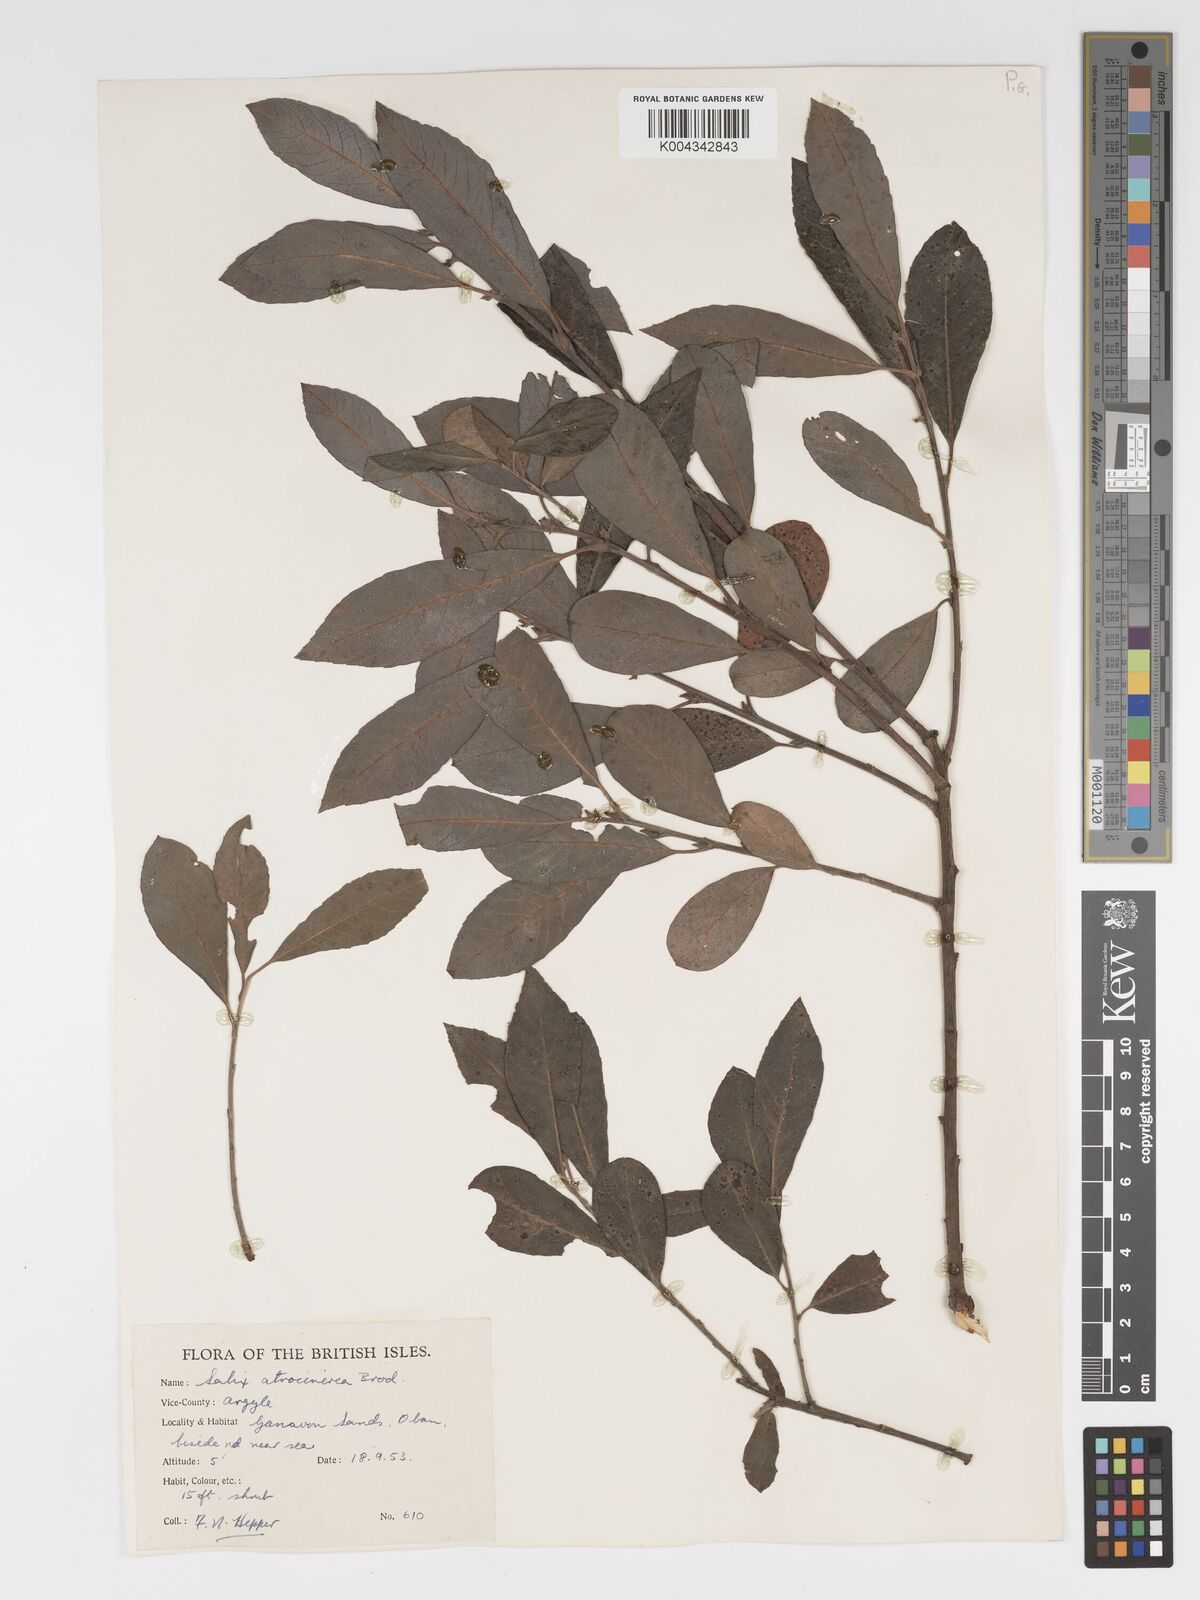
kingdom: Plantae
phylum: Tracheophyta
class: Magnoliopsida
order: Malpighiales
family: Salicaceae
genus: Salix
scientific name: Salix atrocinerea
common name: Rusty willow
